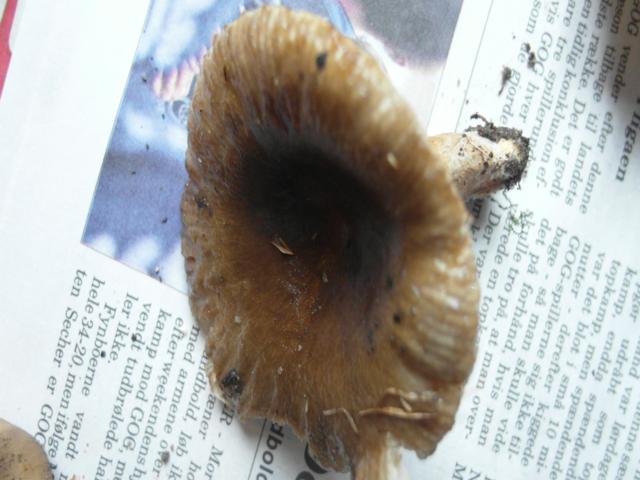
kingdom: Fungi
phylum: Basidiomycota
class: Agaricomycetes
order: Agaricales
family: Amanitaceae
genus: Amanita
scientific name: Amanita fulva
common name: brun kam-fluesvamp
